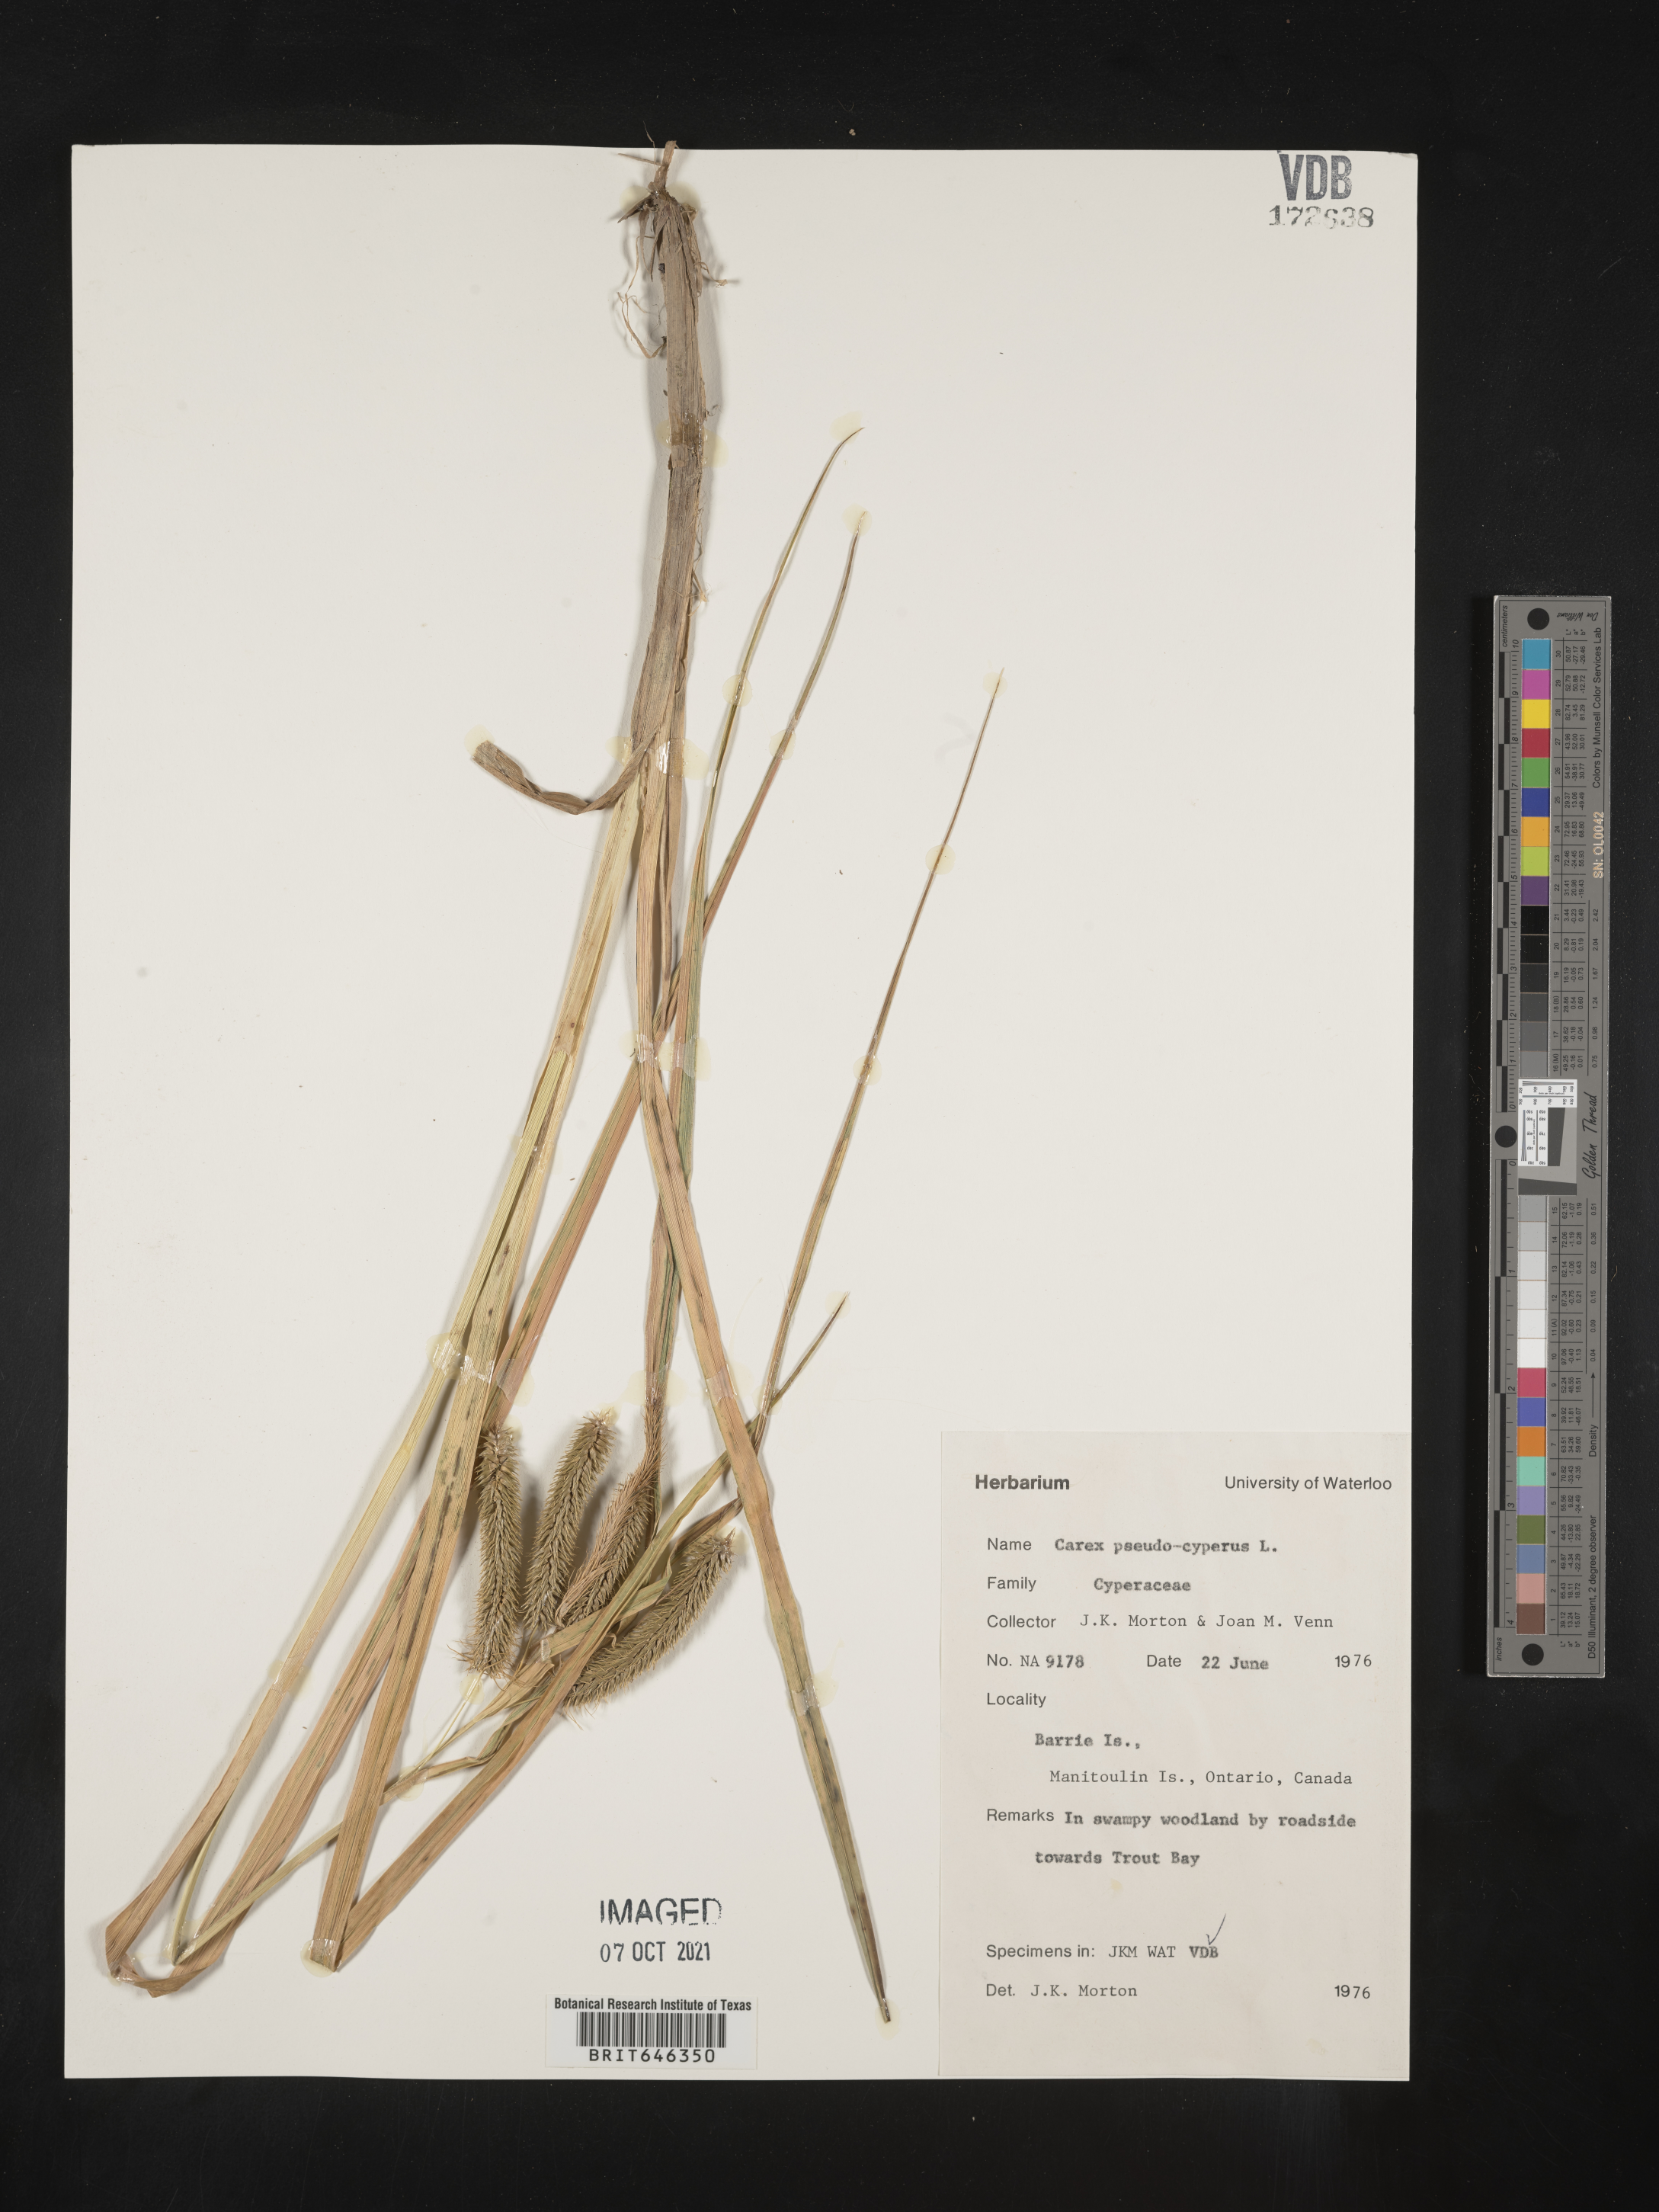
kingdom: Plantae
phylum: Tracheophyta
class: Liliopsida
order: Poales
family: Cyperaceae
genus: Carex
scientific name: Carex pseudocyperus
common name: Cyperus sedge
